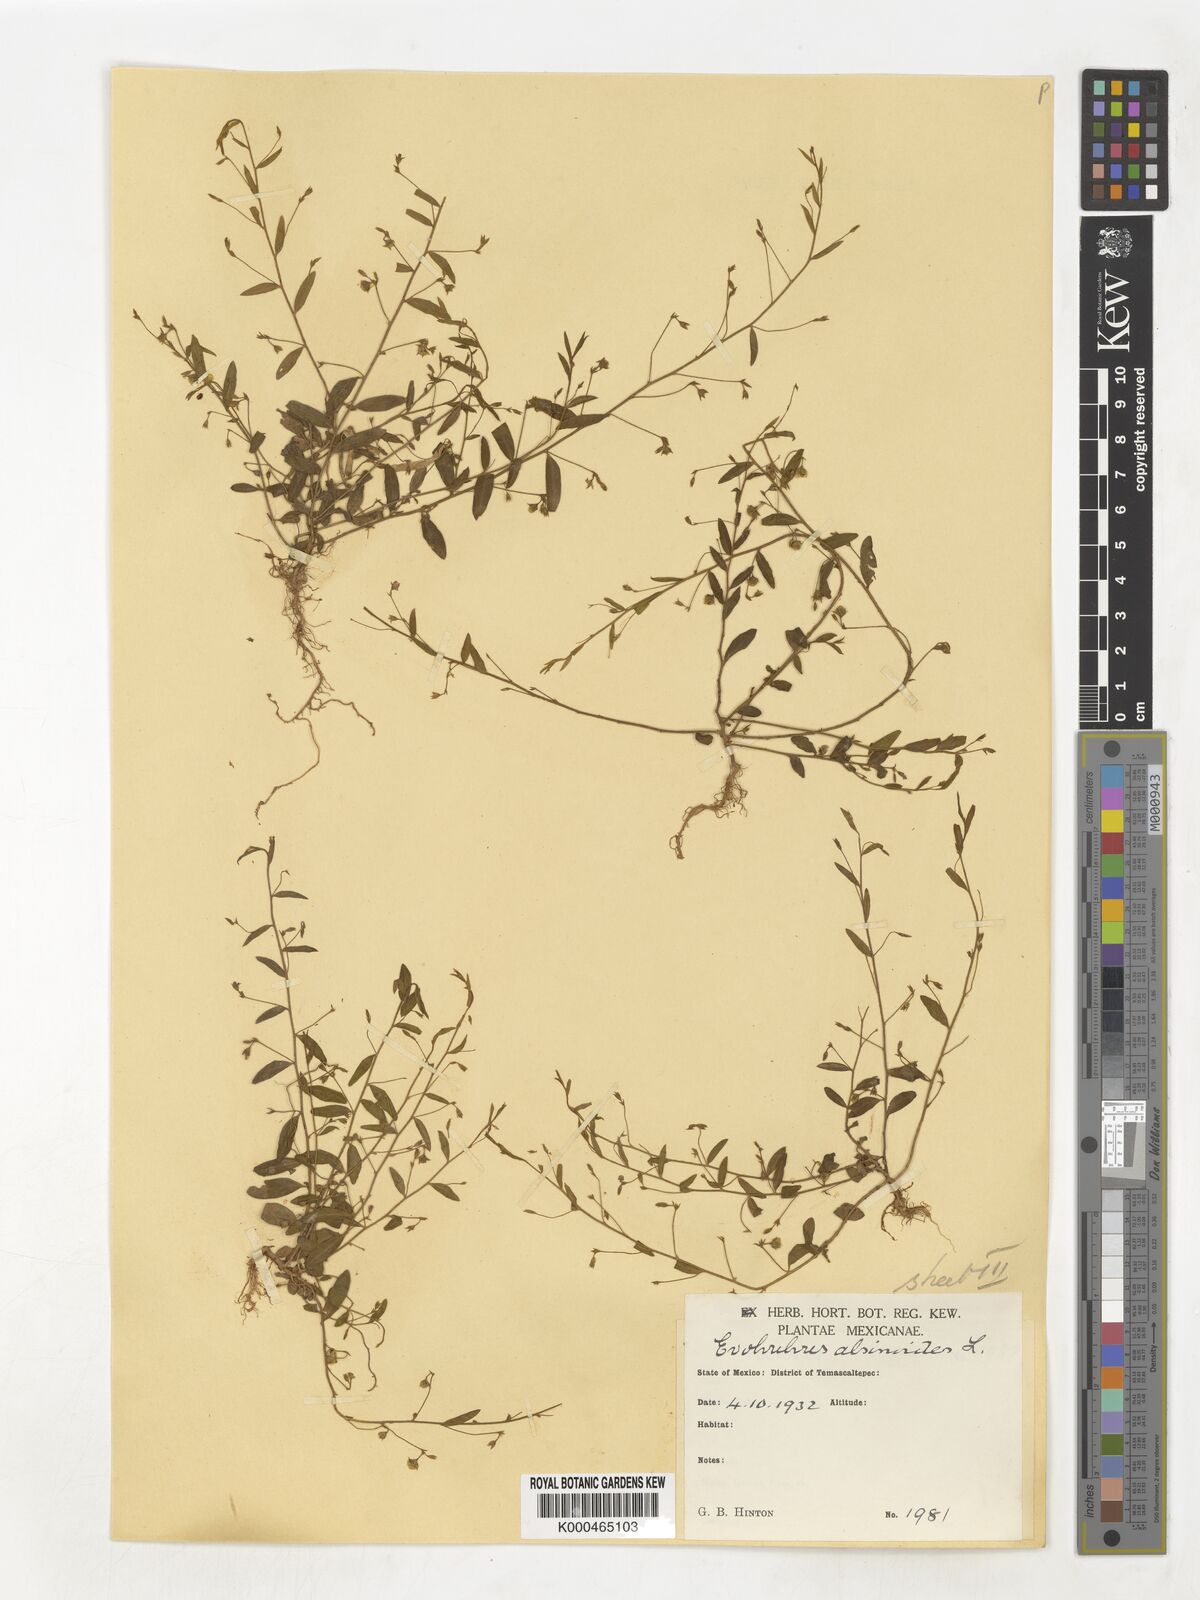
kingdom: Plantae
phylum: Tracheophyta
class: Magnoliopsida
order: Solanales
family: Convolvulaceae
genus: Evolvulus
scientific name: Evolvulus alsinoides
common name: Slender dwarf morning-glory
